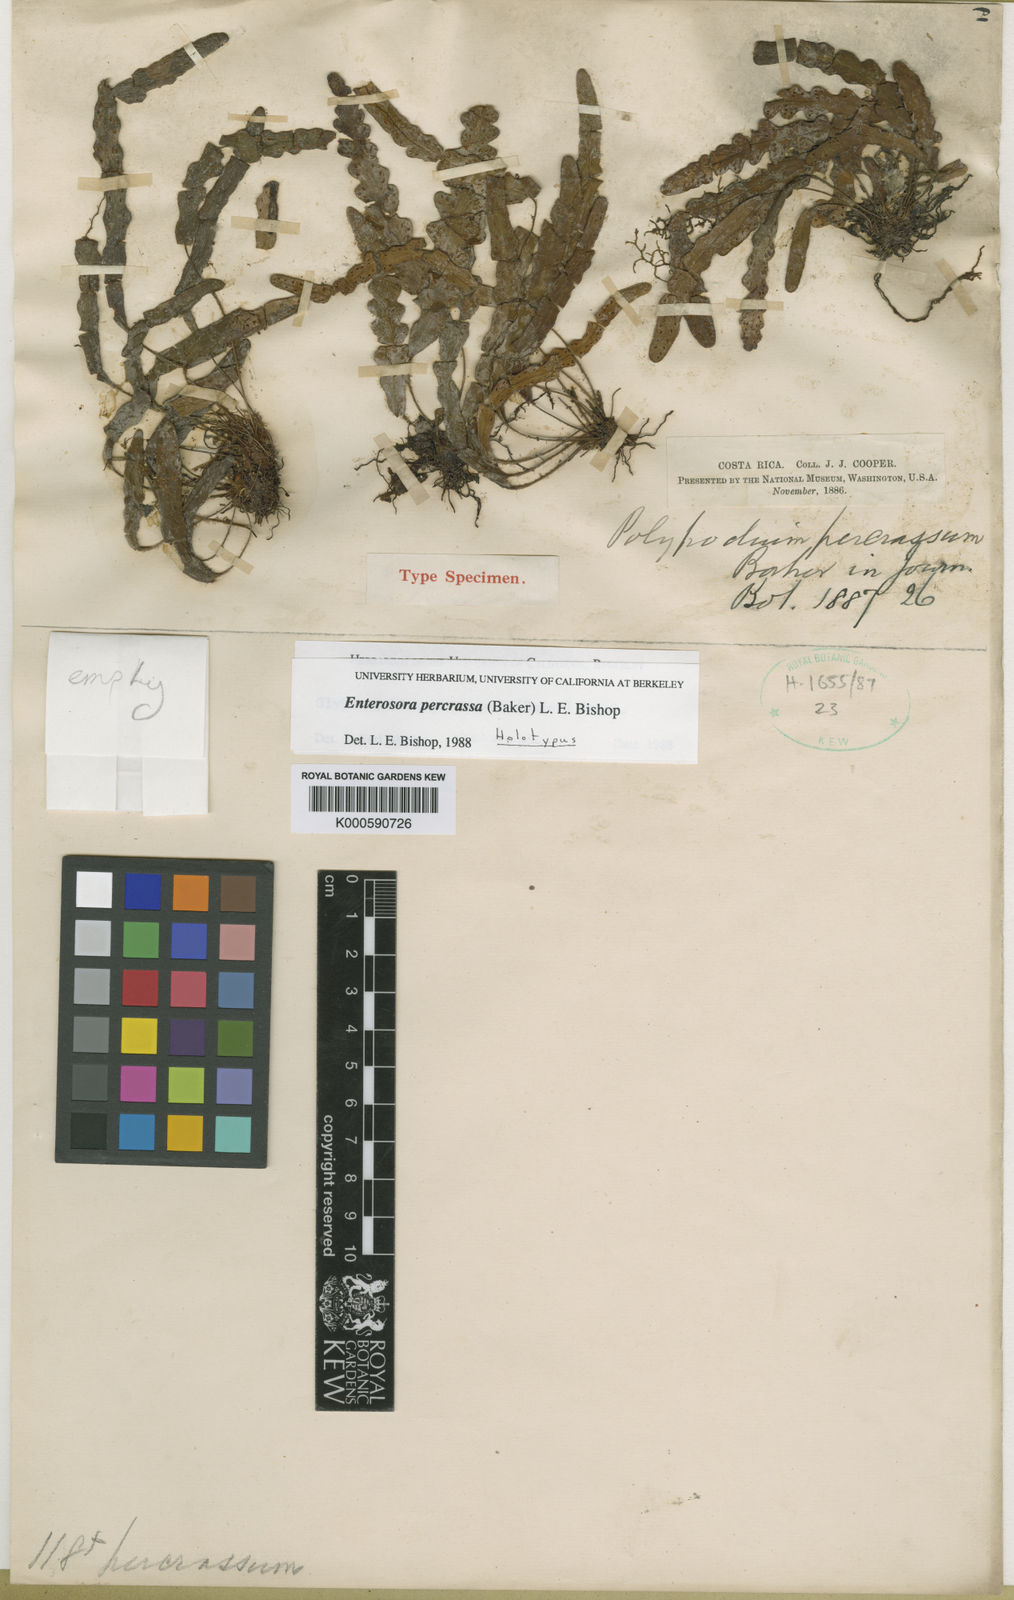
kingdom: Plantae
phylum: Tracheophyta
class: Polypodiopsida
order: Polypodiales
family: Polypodiaceae
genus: Enterosora
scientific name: Enterosora percrassa
